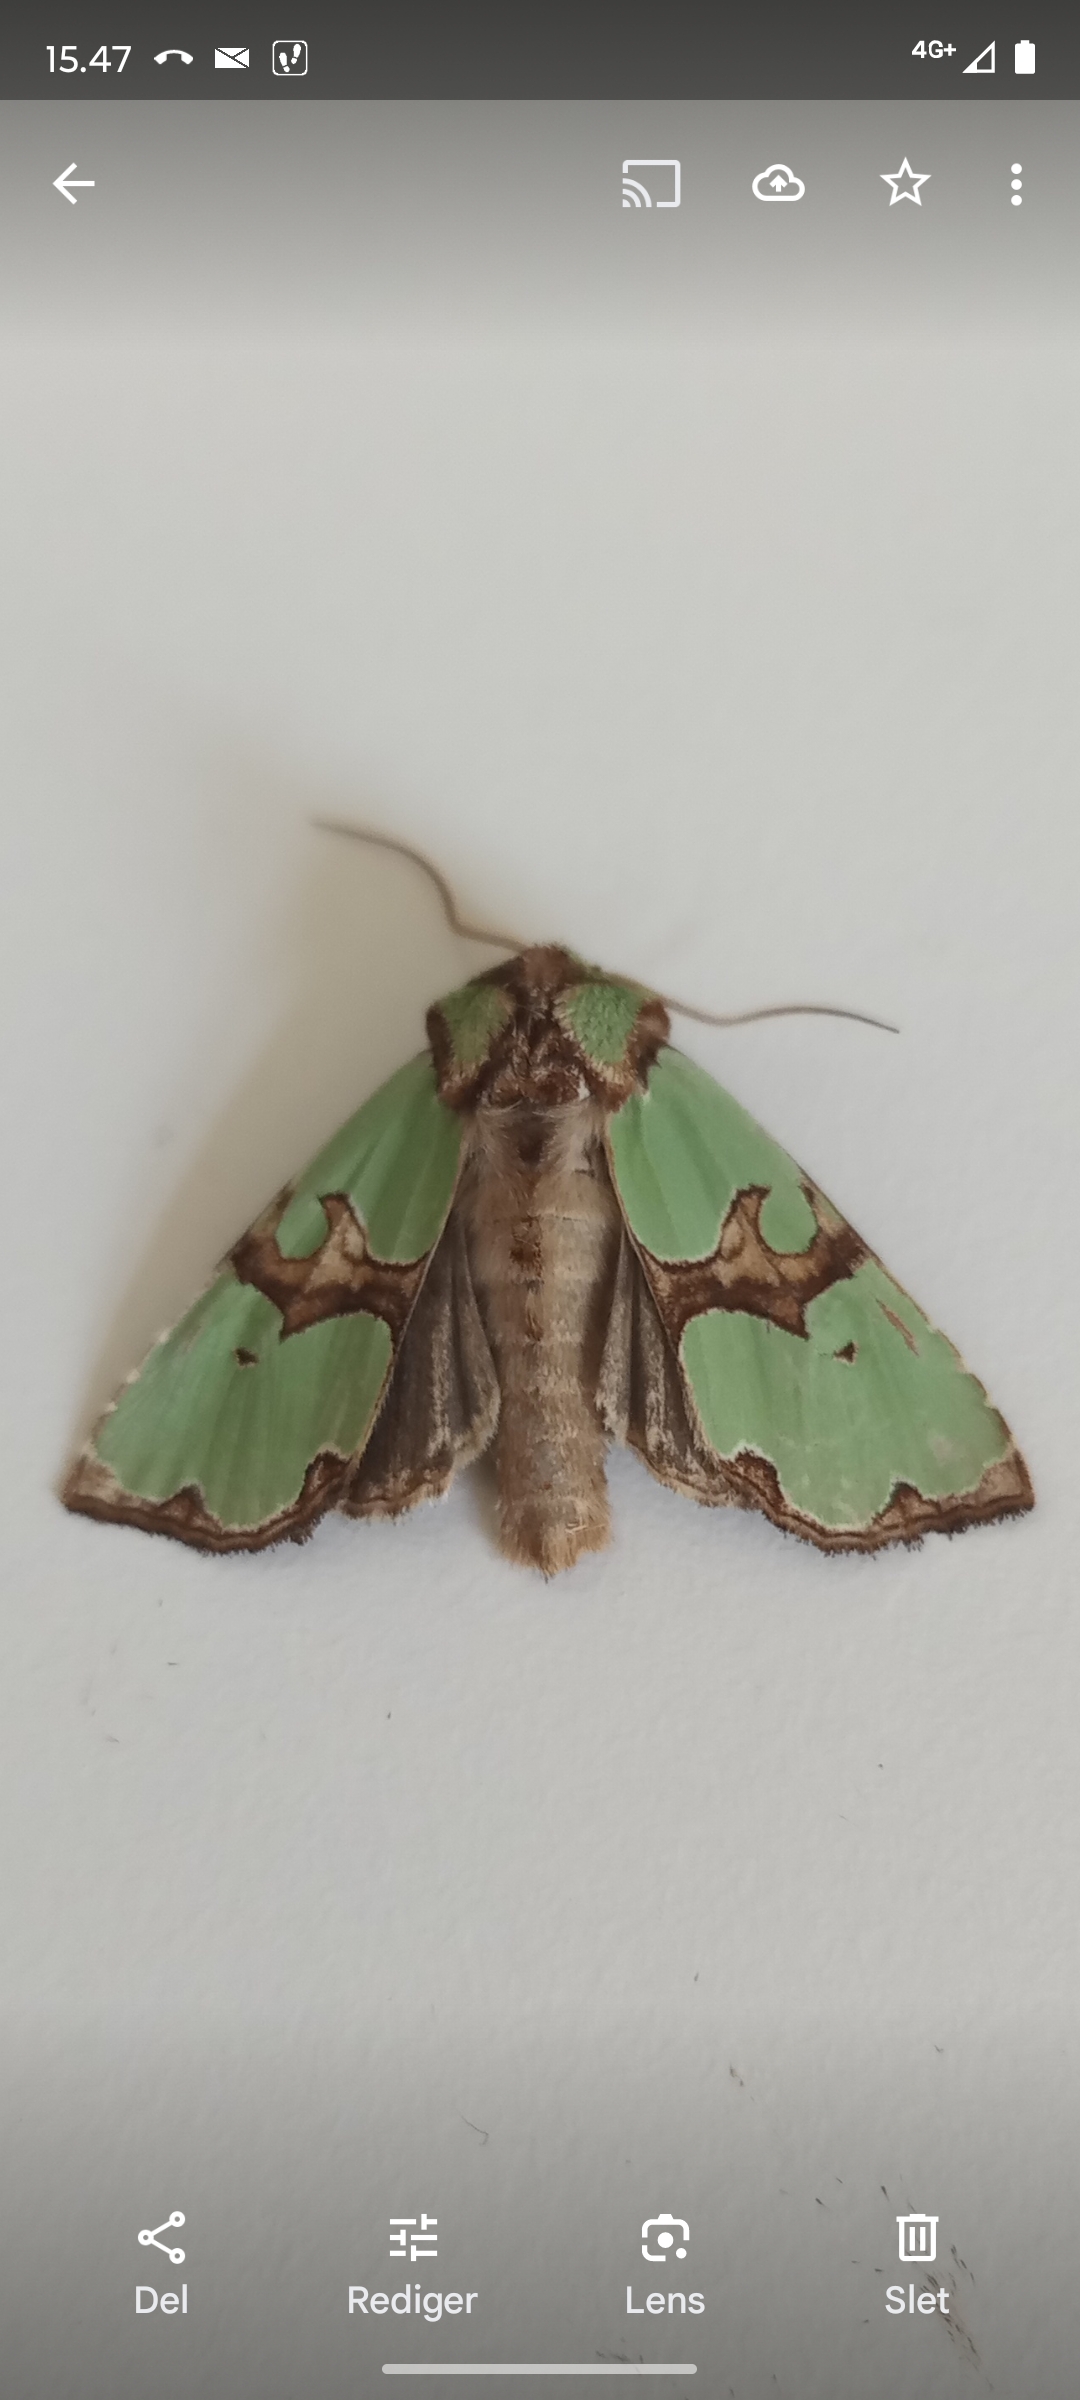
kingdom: Animalia
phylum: Arthropoda
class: Insecta
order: Lepidoptera
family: Noctuidae
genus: Staurophora
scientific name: Staurophora celsia
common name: Grøn pragtugle
